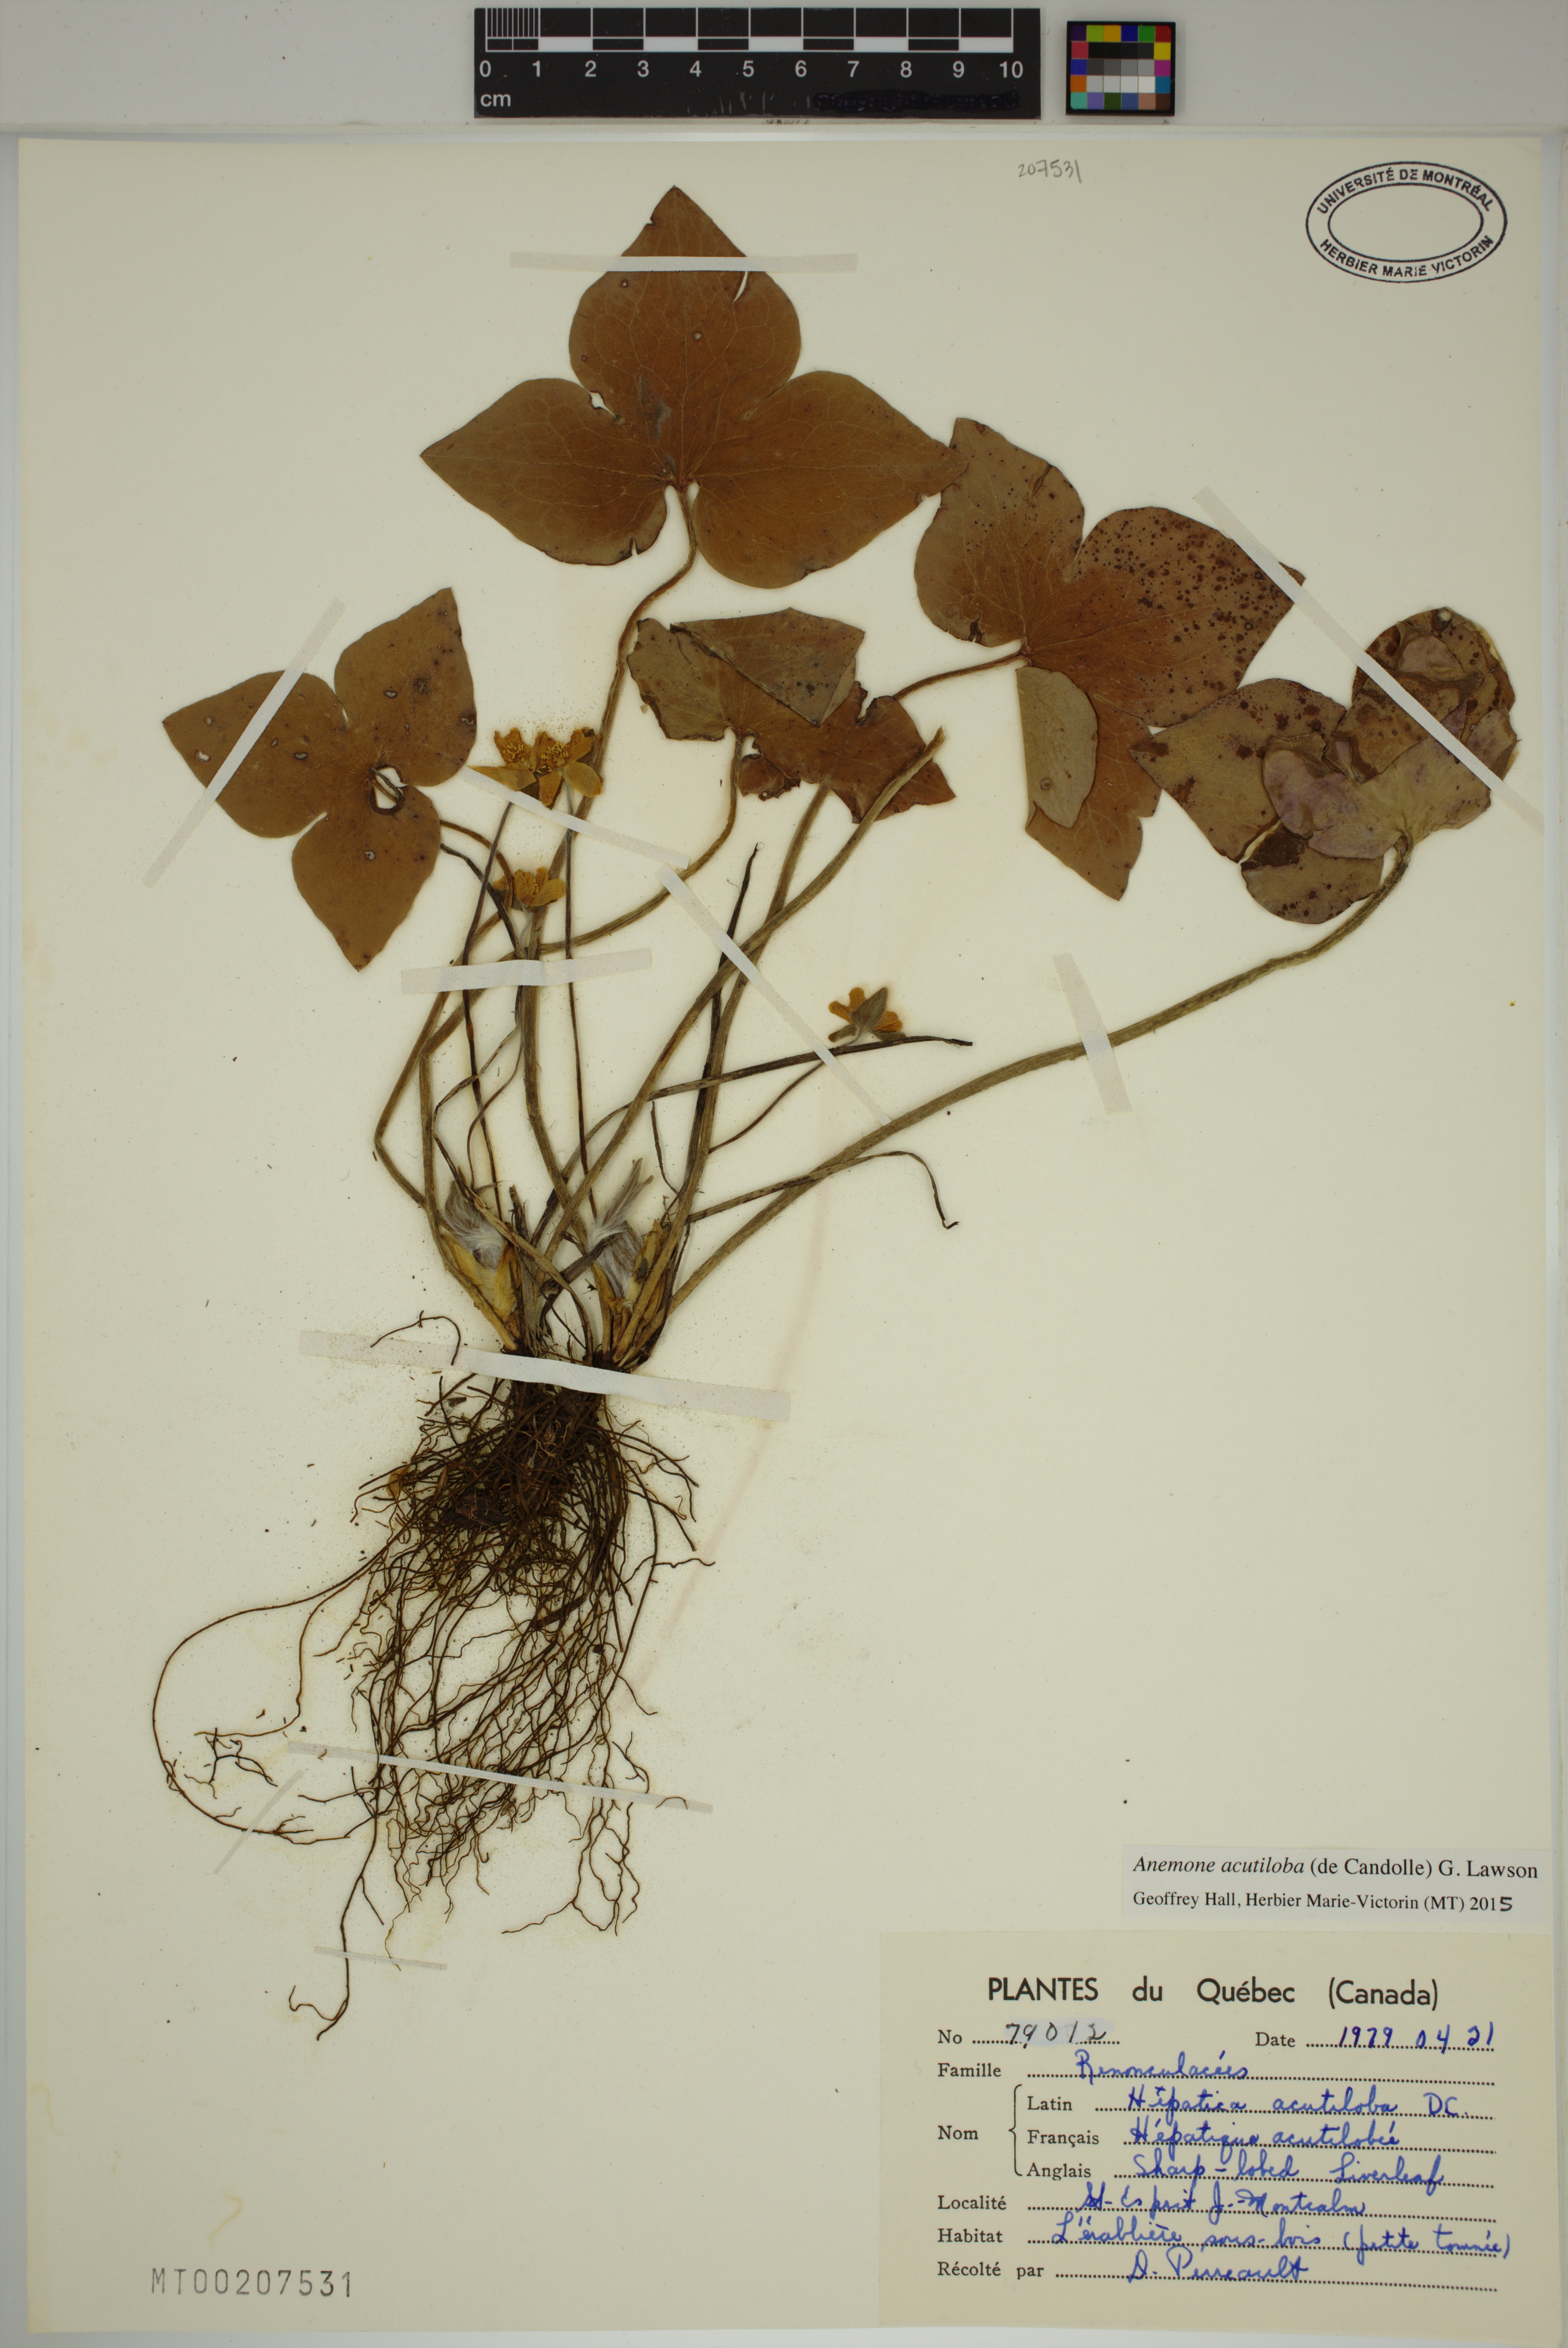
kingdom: Plantae
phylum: Tracheophyta
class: Magnoliopsida
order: Ranunculales
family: Ranunculaceae
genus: Hepatica
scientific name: Hepatica acutiloba
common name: Sharp-lobed hepatica
